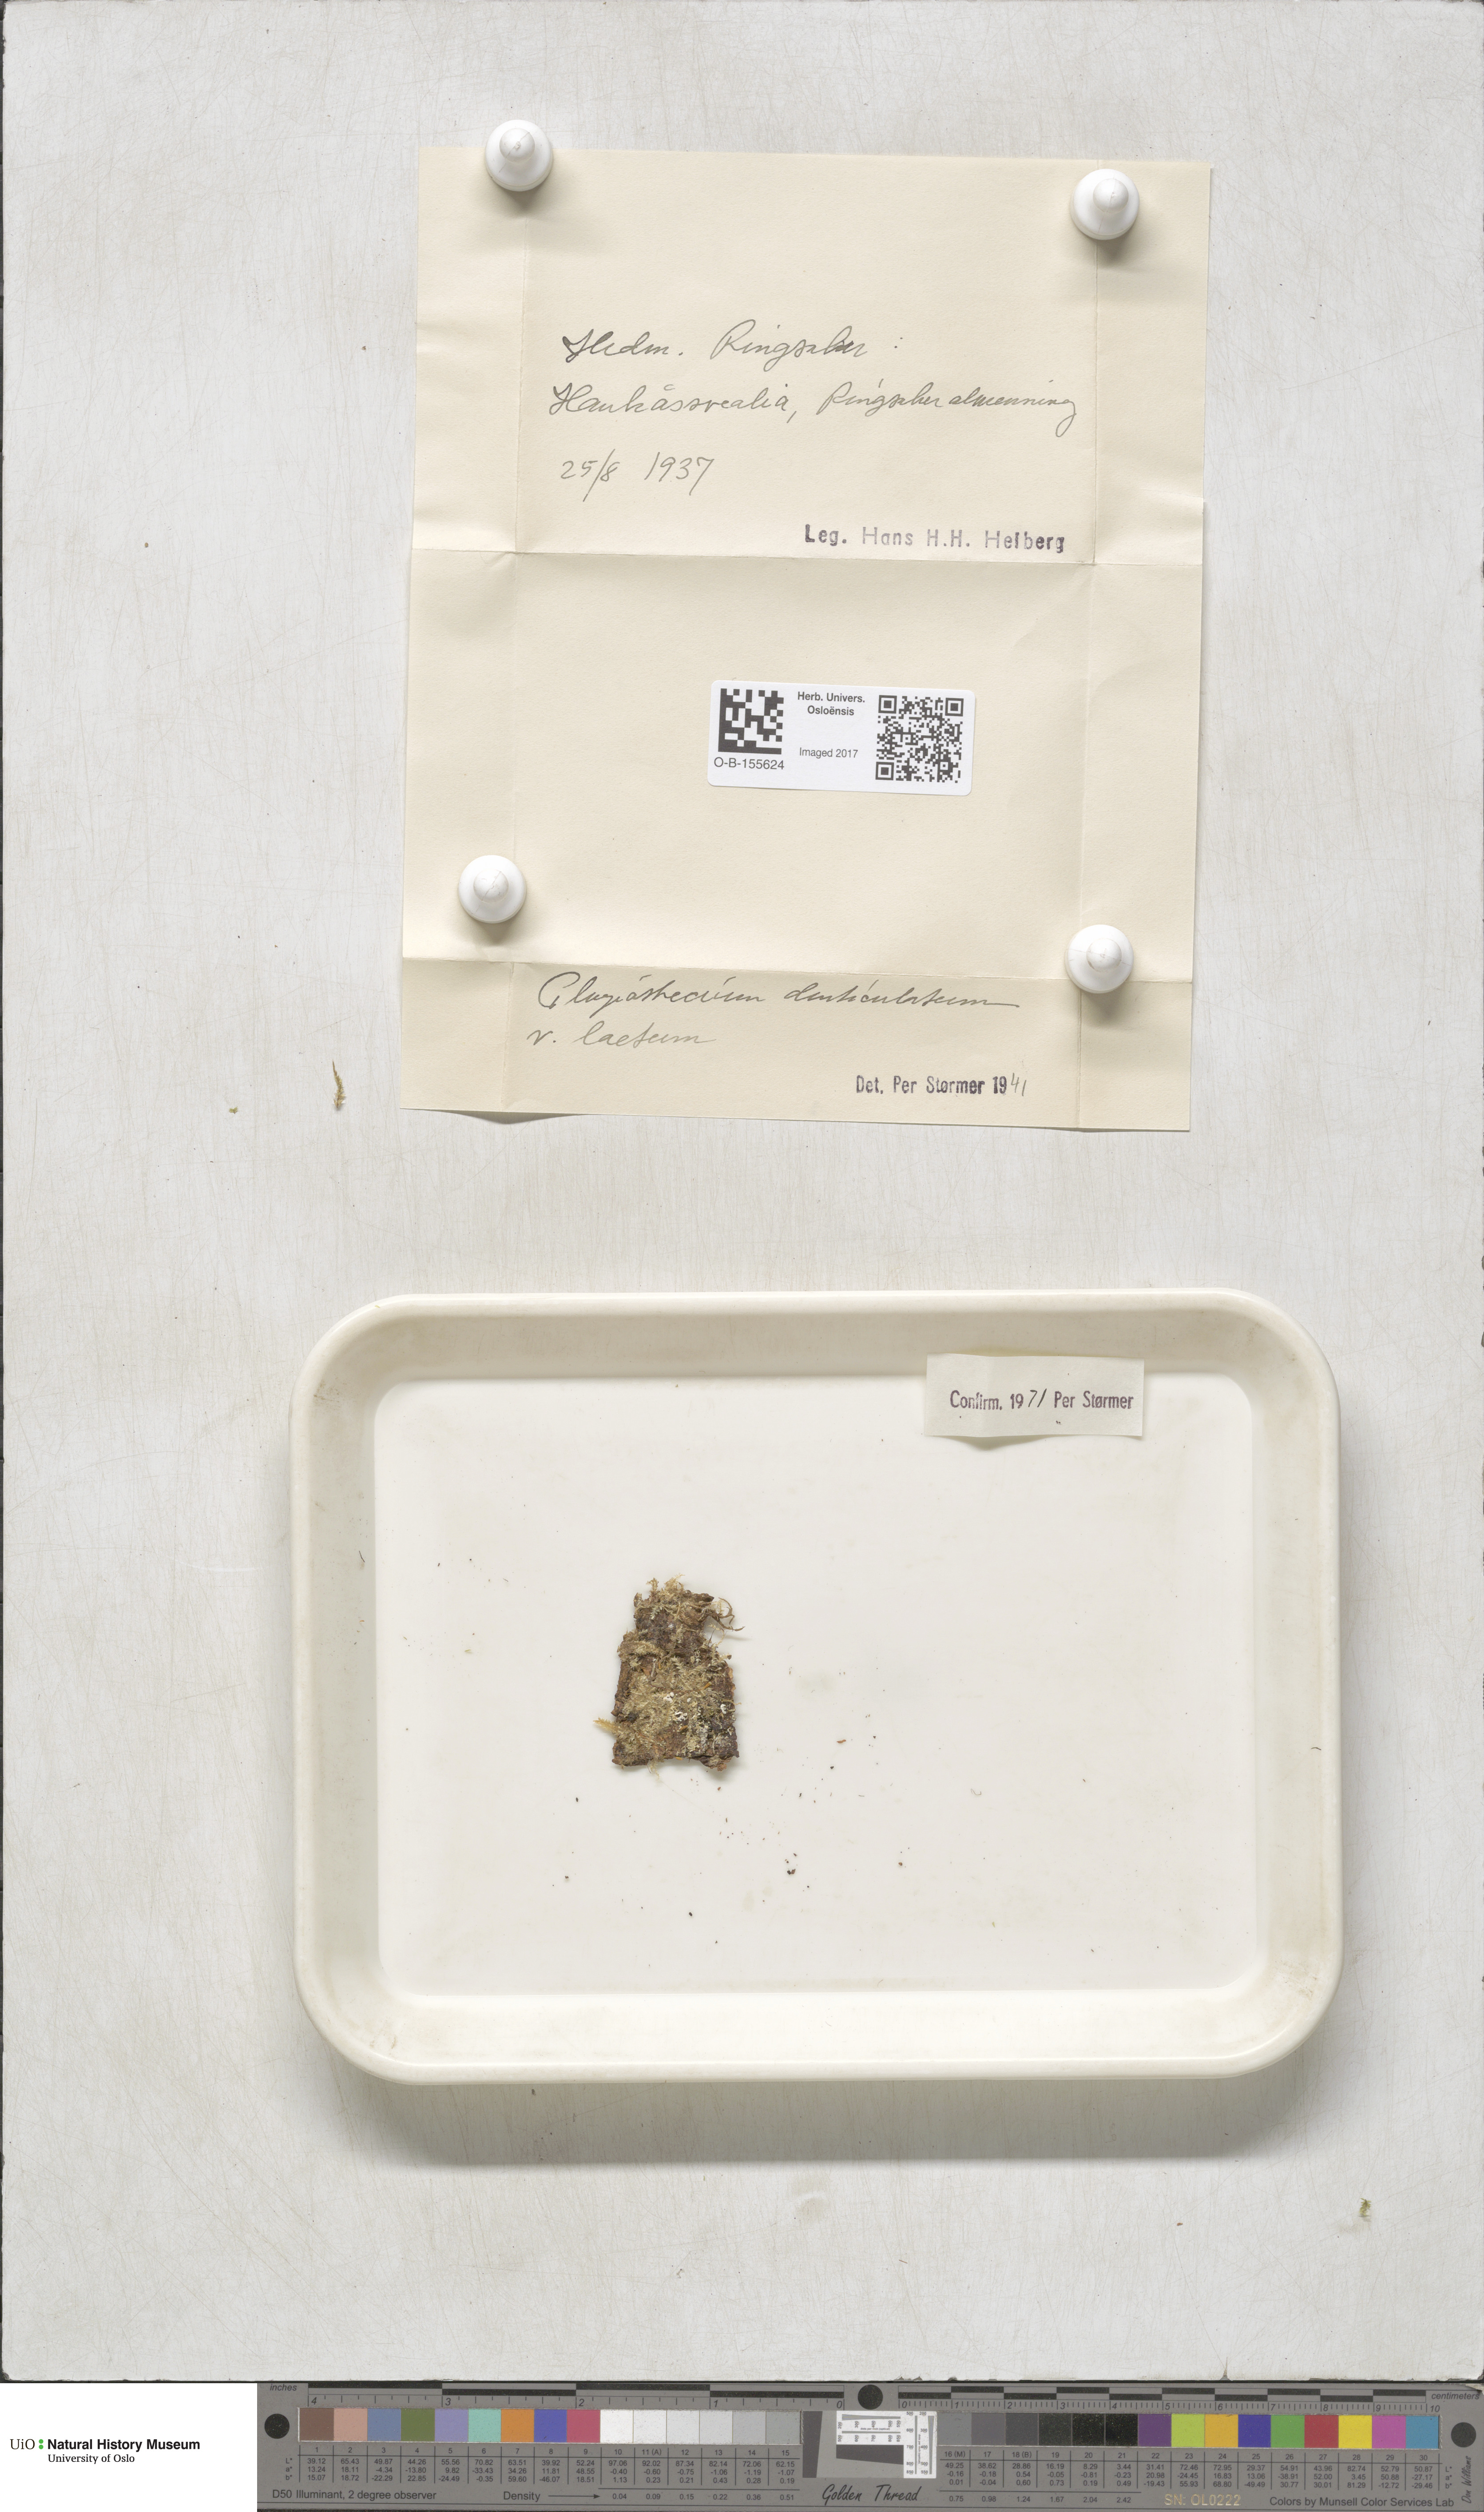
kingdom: Plantae
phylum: Bryophyta
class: Bryopsida
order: Hypnales
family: Plagiotheciaceae
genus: Plagiothecium
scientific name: Plagiothecium laetum
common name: Bright silk moss
